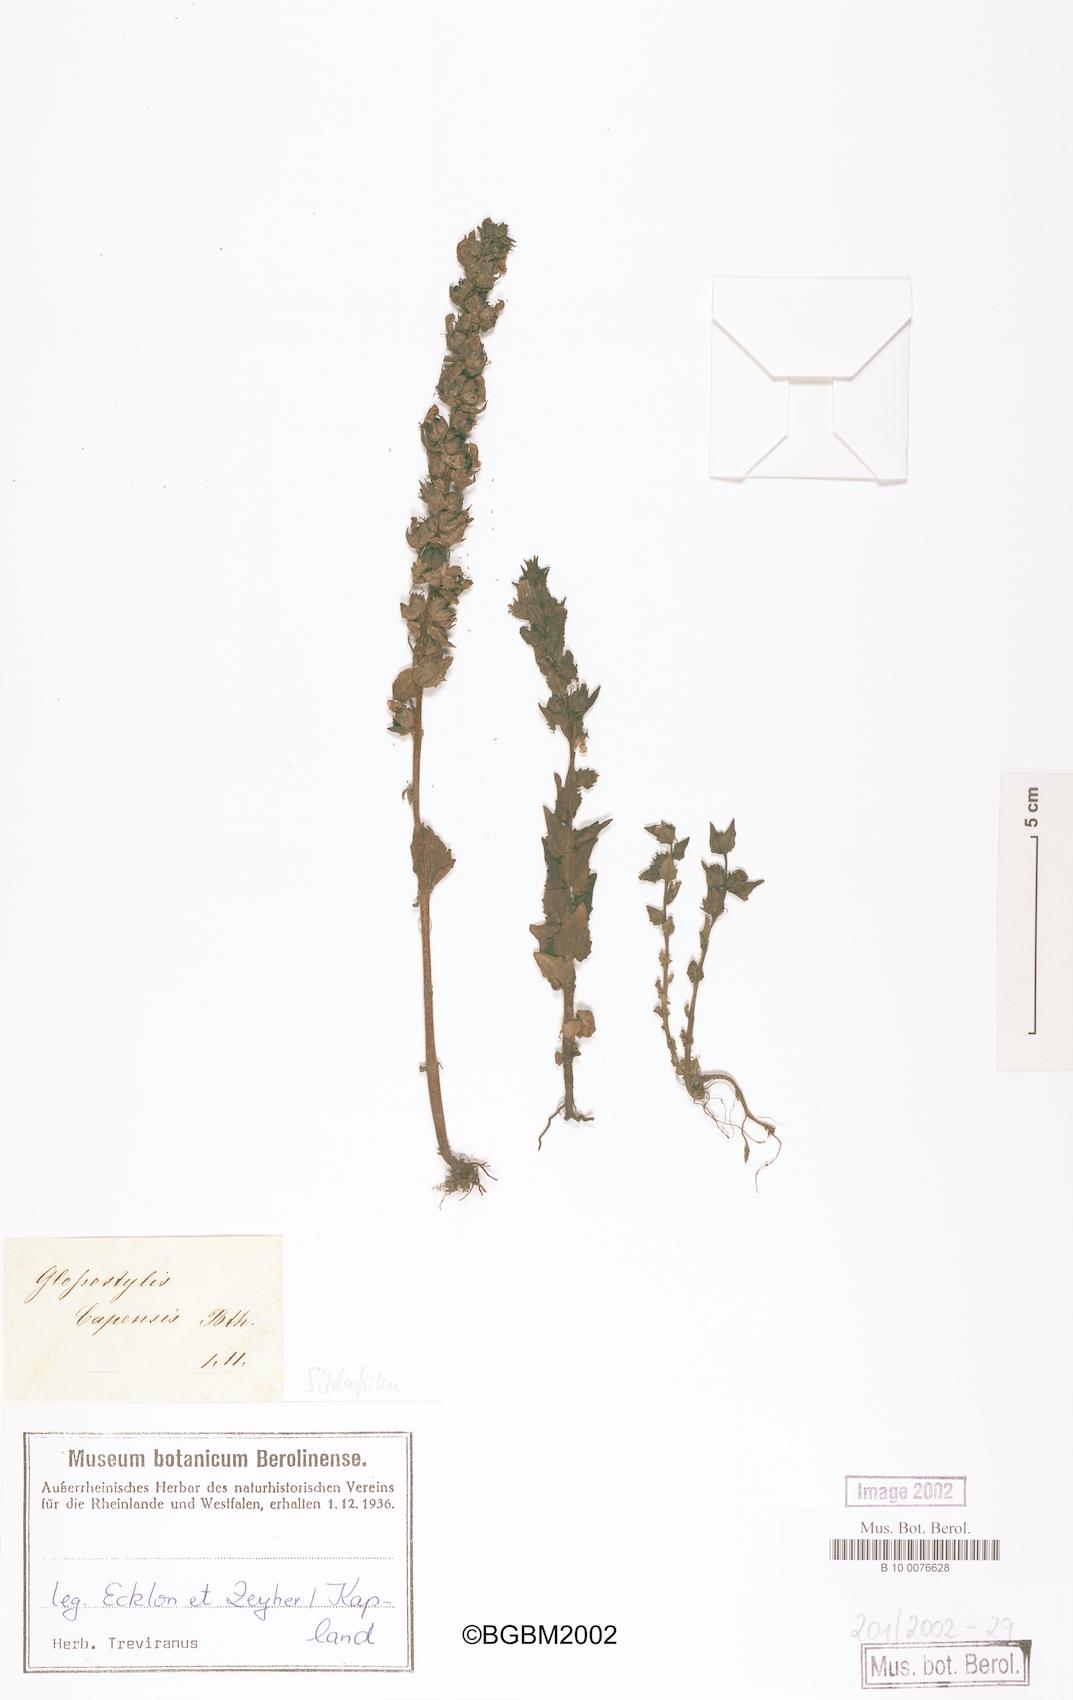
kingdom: Plantae
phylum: Tracheophyta
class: Magnoliopsida
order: Lamiales
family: Orobanchaceae
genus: Alectra
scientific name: Alectra sessiliflora
